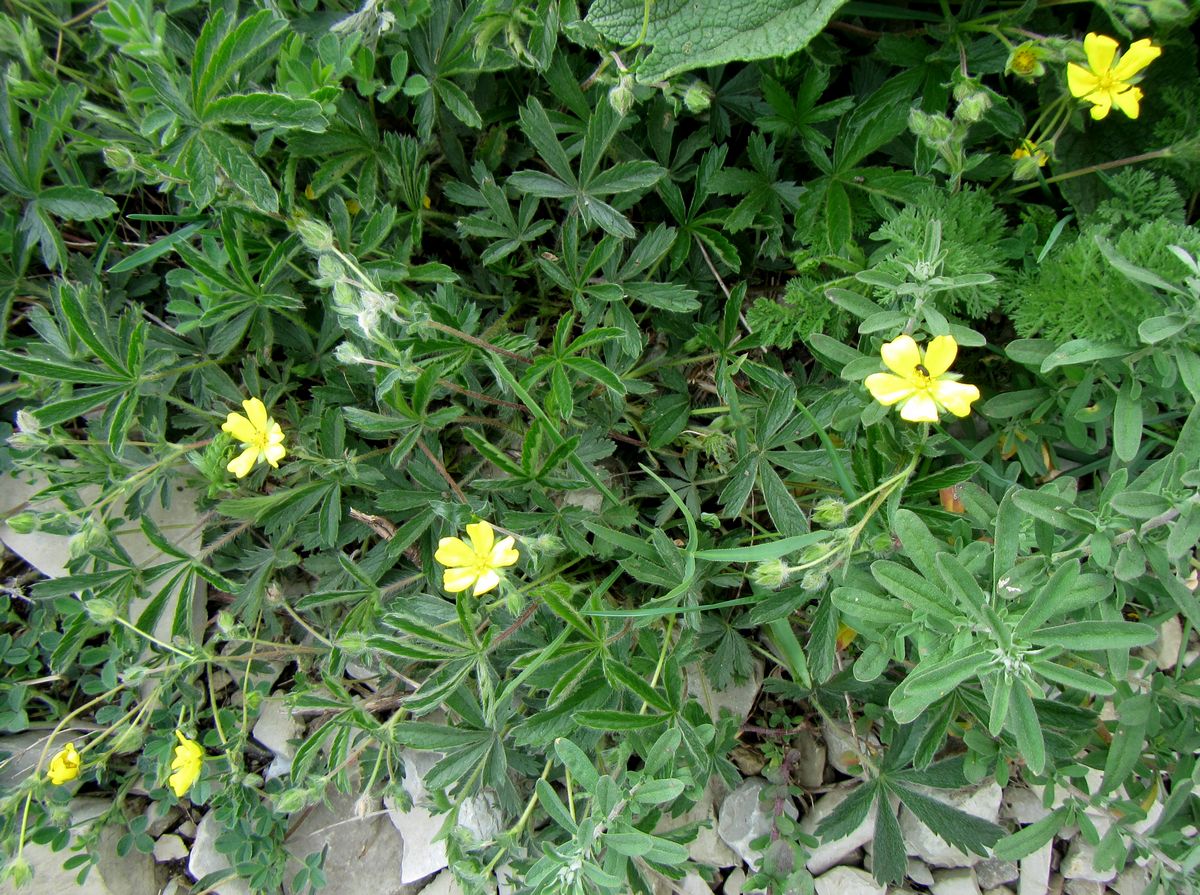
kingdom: Plantae
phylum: Tracheophyta
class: Magnoliopsida
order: Rosales
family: Rosaceae
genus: Potentilla
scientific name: Potentilla sphenophylla
